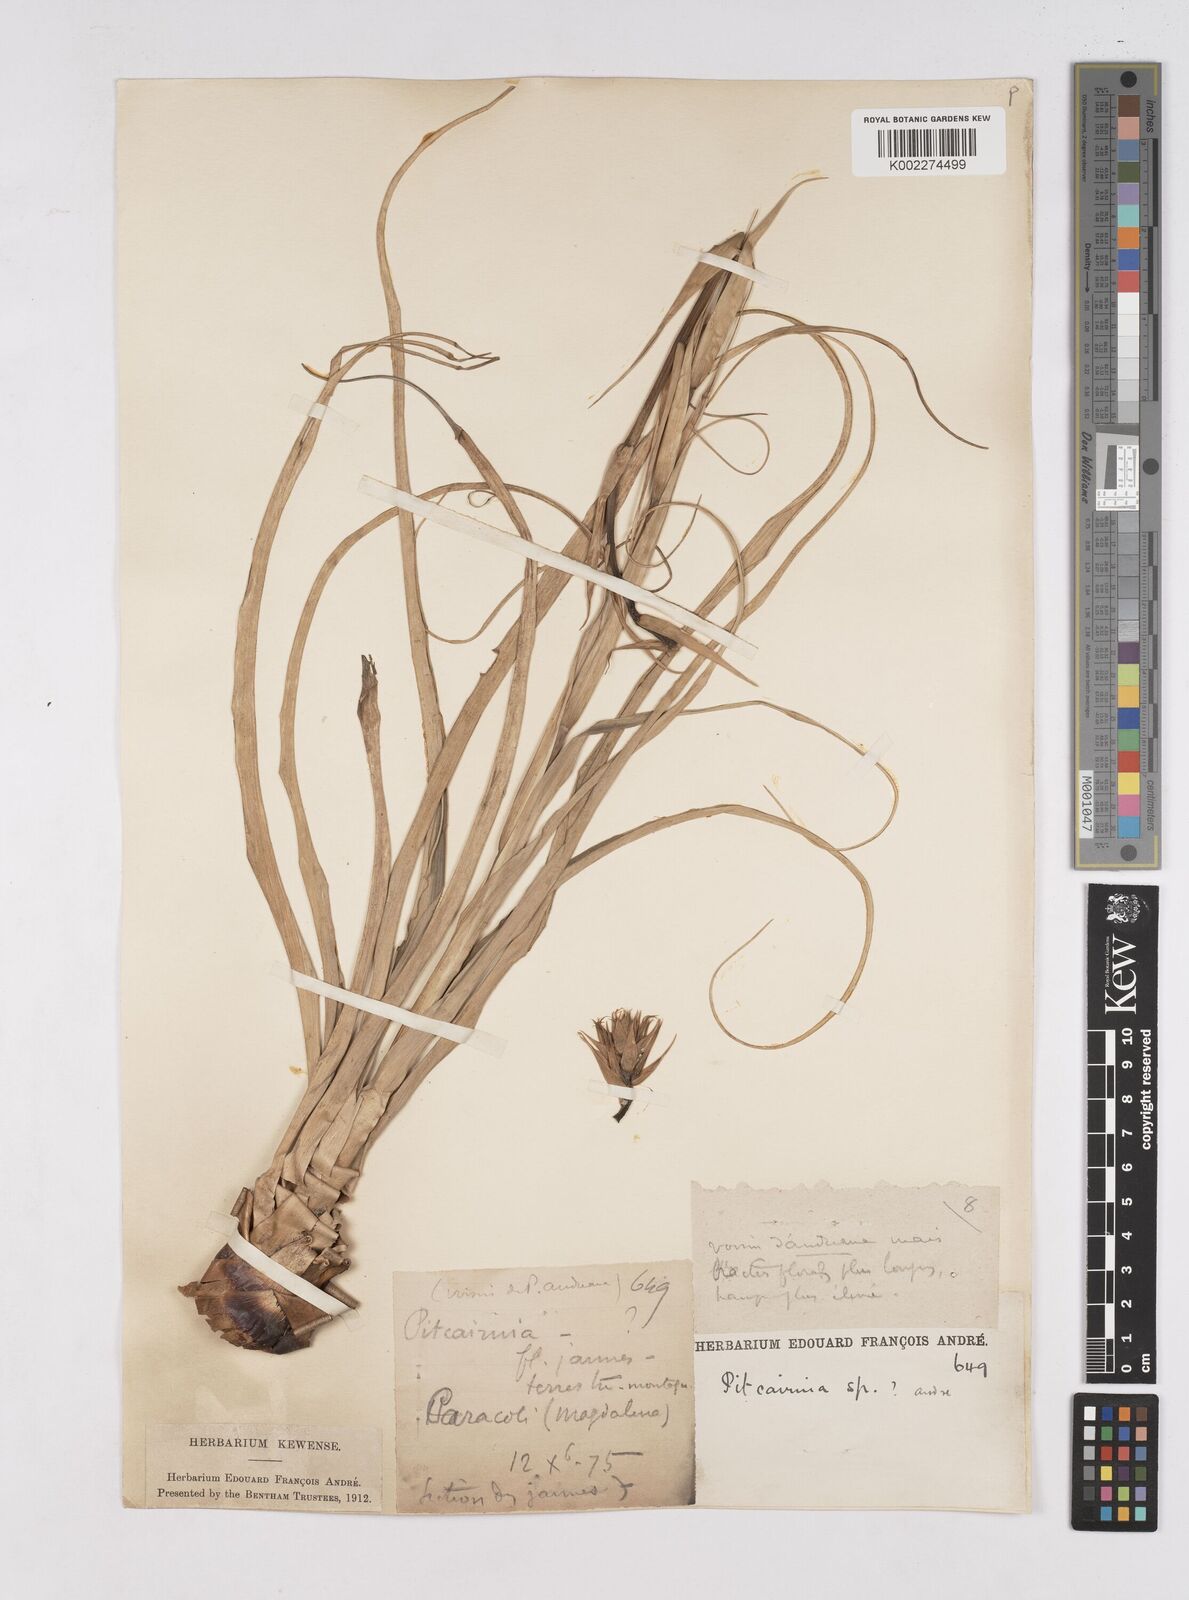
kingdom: Plantae
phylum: Tracheophyta
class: Liliopsida
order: Poales
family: Bromeliaceae
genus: Pitcairnia
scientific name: Pitcairnia
